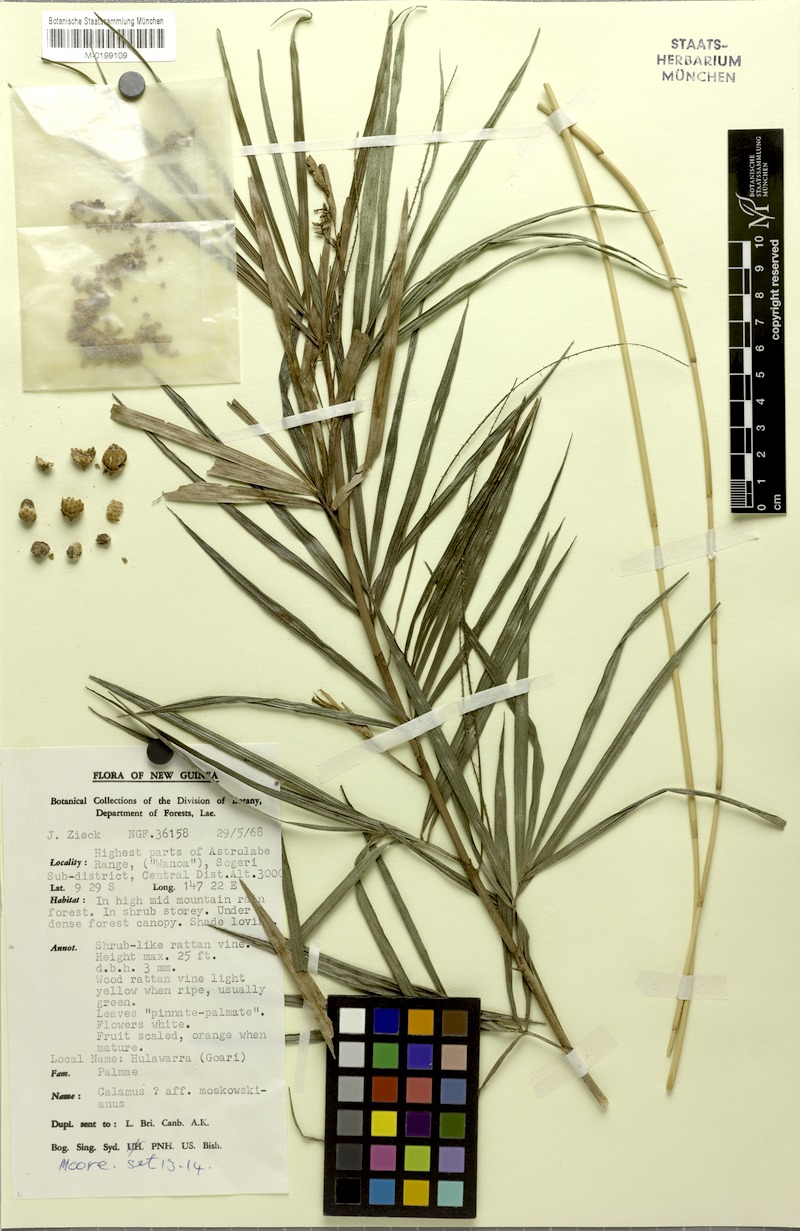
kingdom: Plantae
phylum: Tracheophyta
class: Liliopsida
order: Arecales
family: Arecaceae
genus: Calamus
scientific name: Calamus essigii
